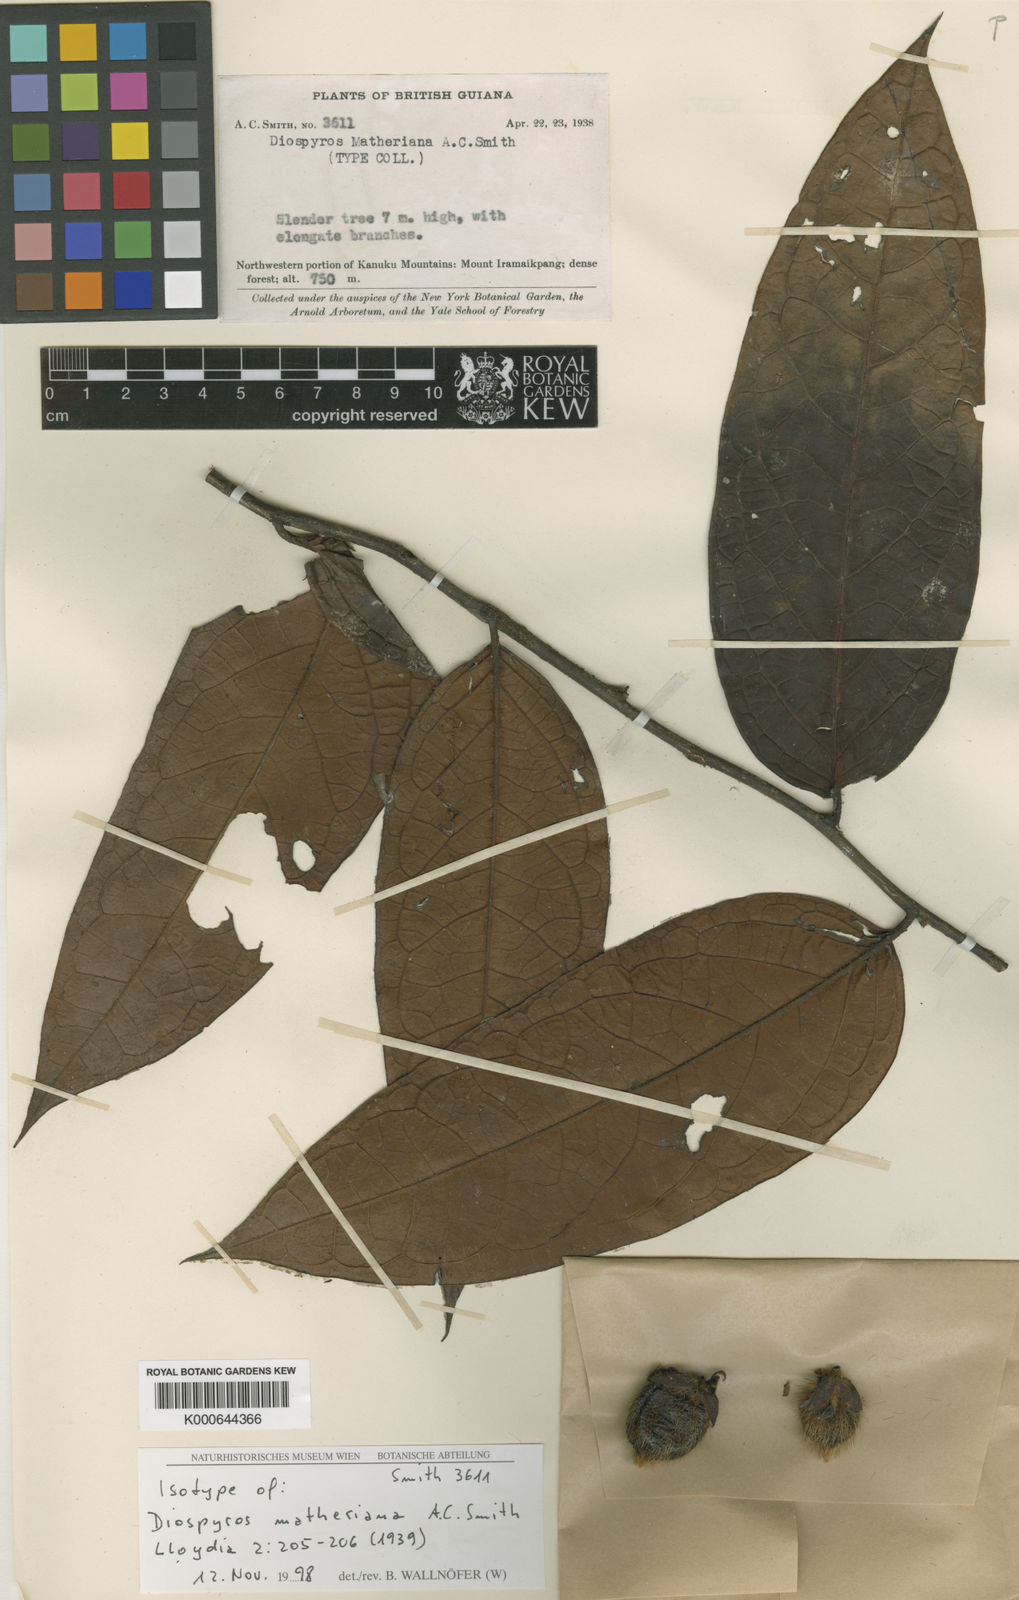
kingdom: Plantae
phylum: Tracheophyta
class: Magnoliopsida
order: Ericales
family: Ebenaceae
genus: Diospyros
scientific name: Diospyros matheriana
